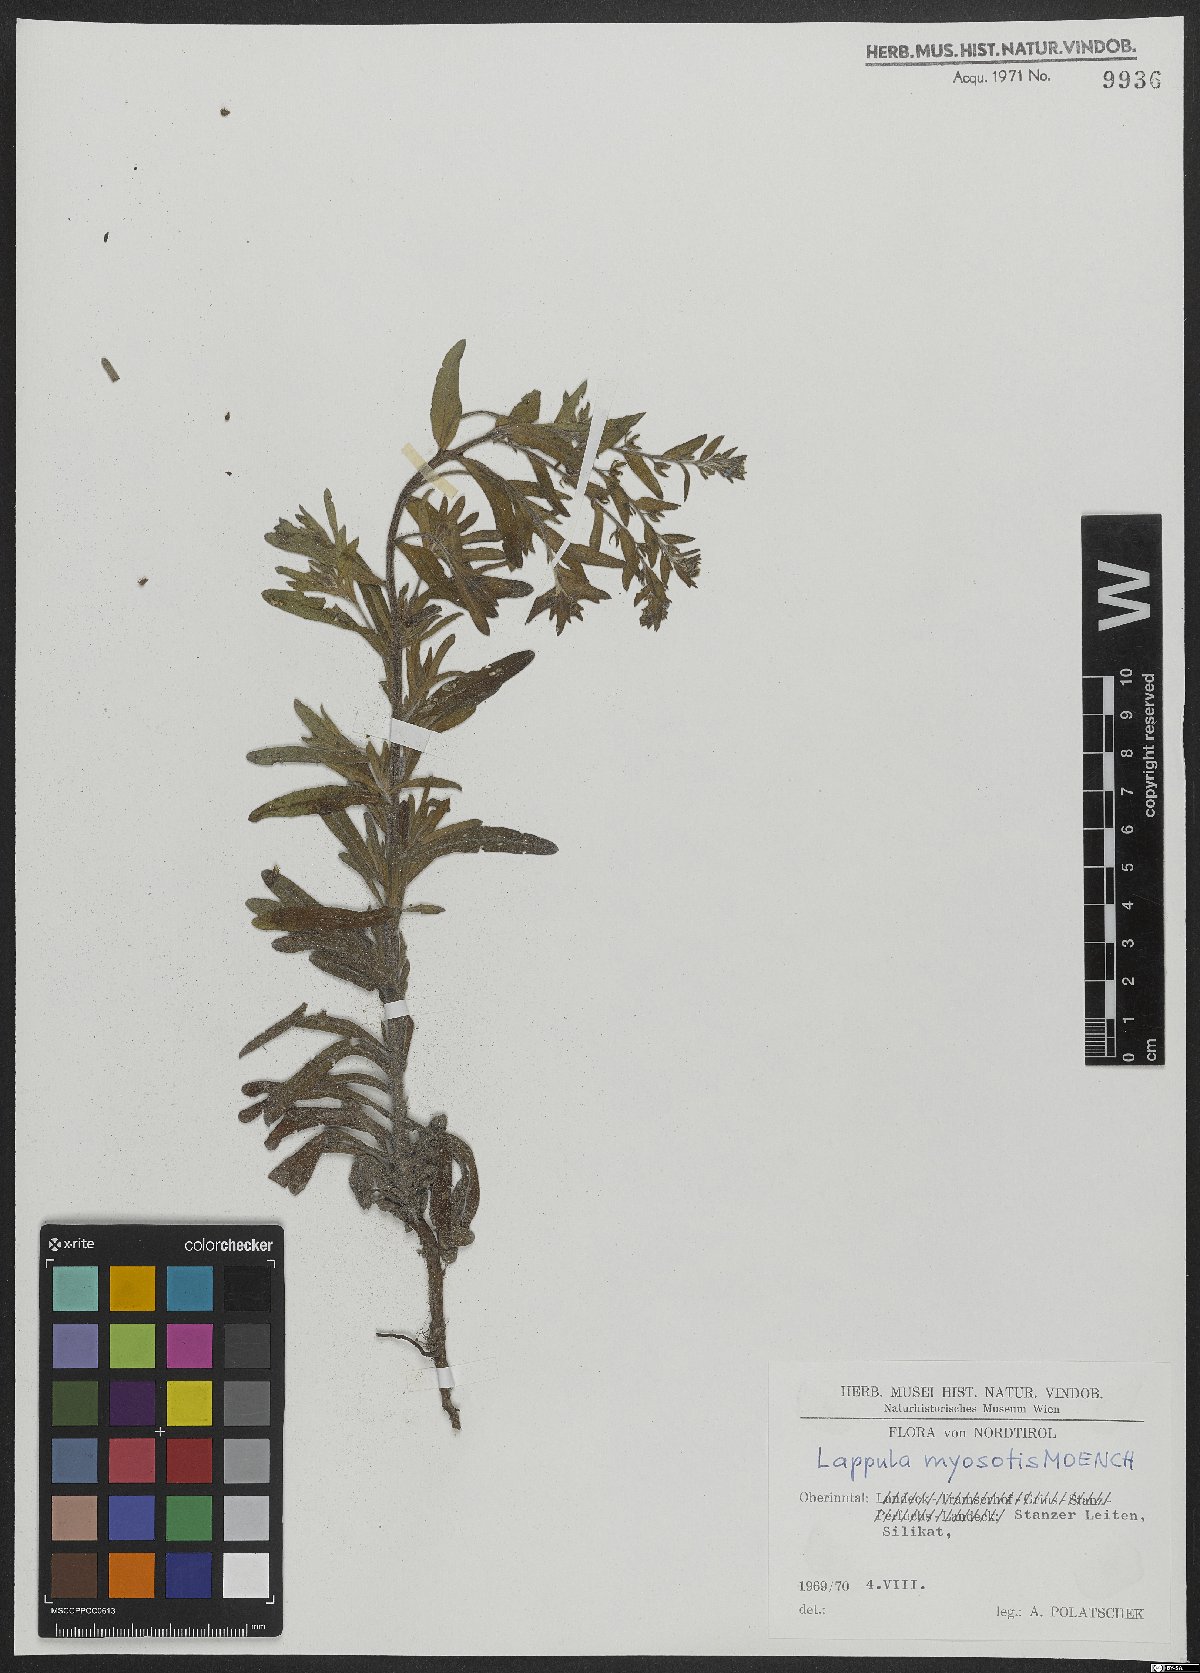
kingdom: Plantae
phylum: Tracheophyta
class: Magnoliopsida
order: Boraginales
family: Boraginaceae
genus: Lappula
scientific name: Lappula squarrosa
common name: European stickseed
